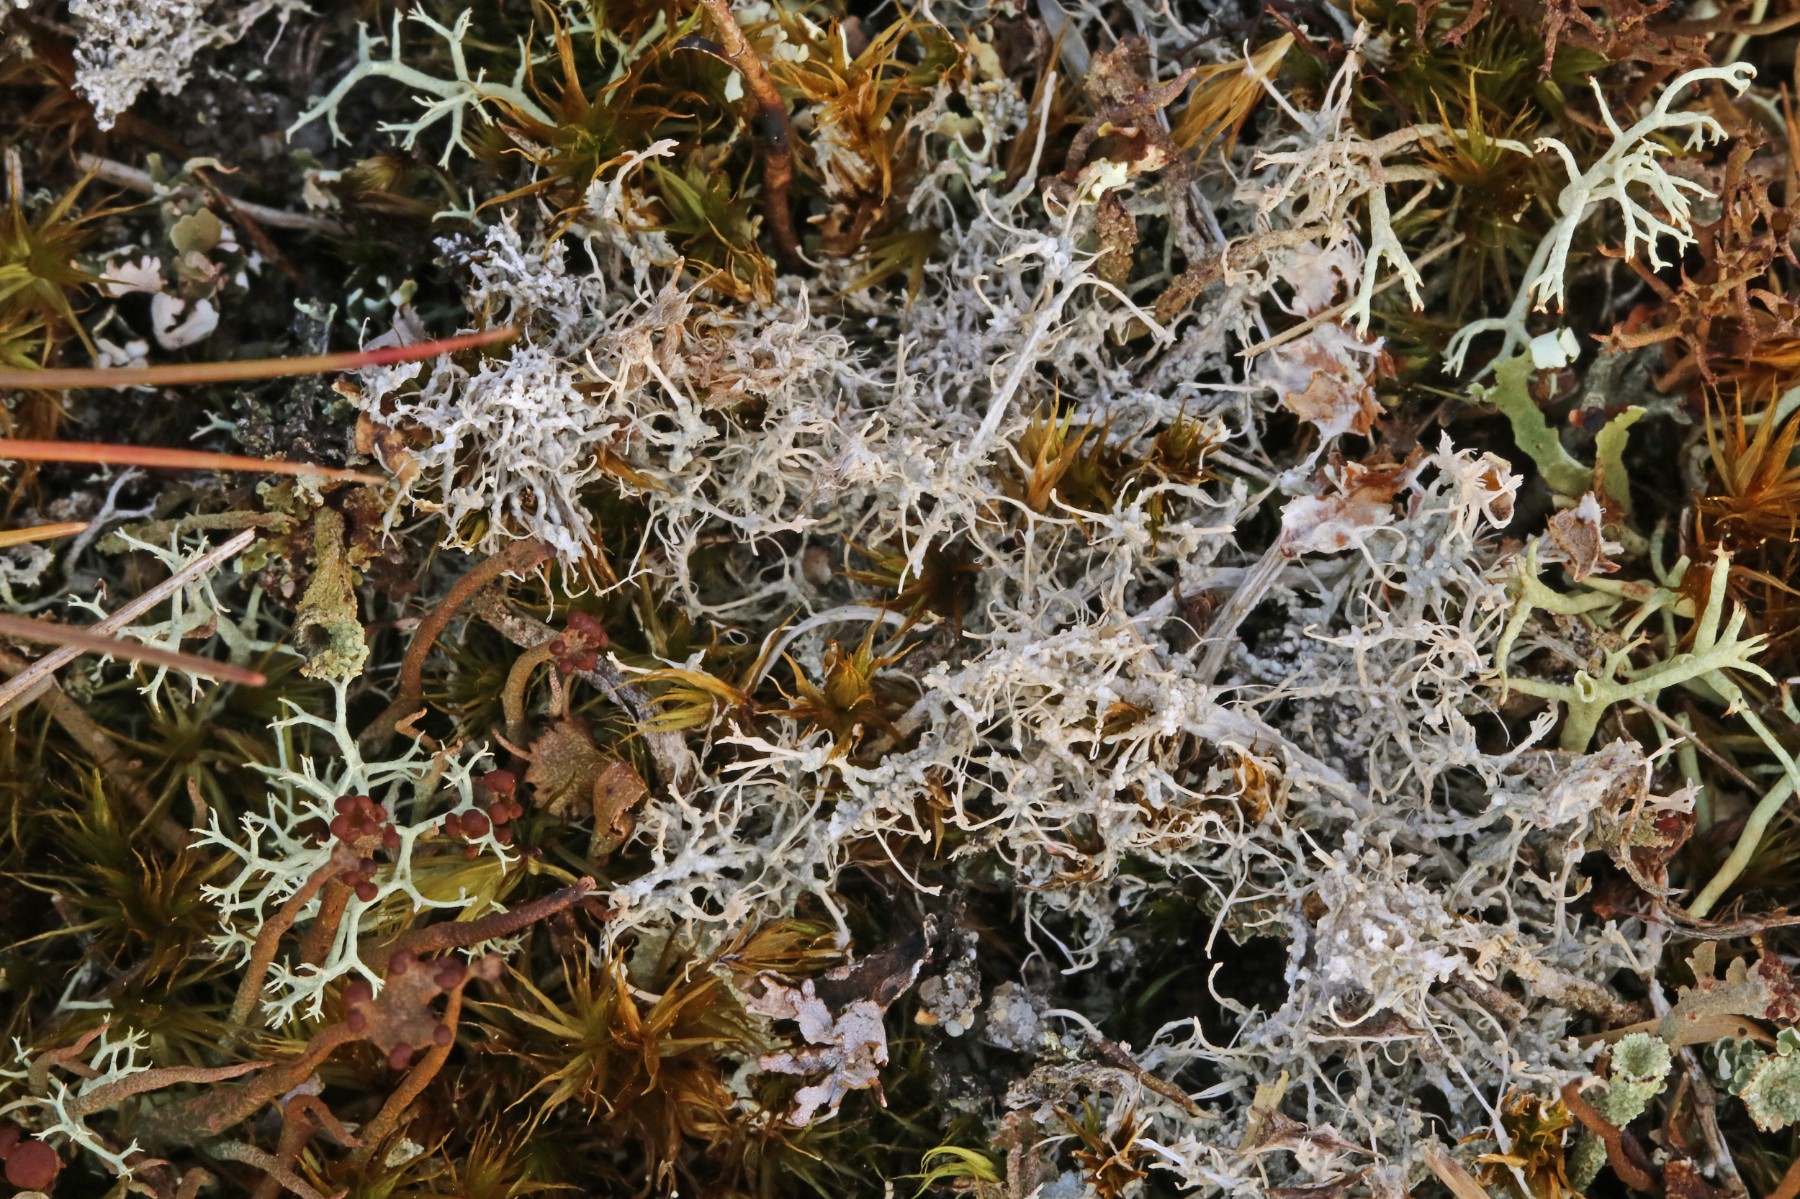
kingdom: Fungi
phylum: Ascomycota
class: Lecanoromycetes
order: Pertusariales
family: Ochrolechiaceae
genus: Ochrolechia
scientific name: Ochrolechia frigida
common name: fjeld-blegskivelav
